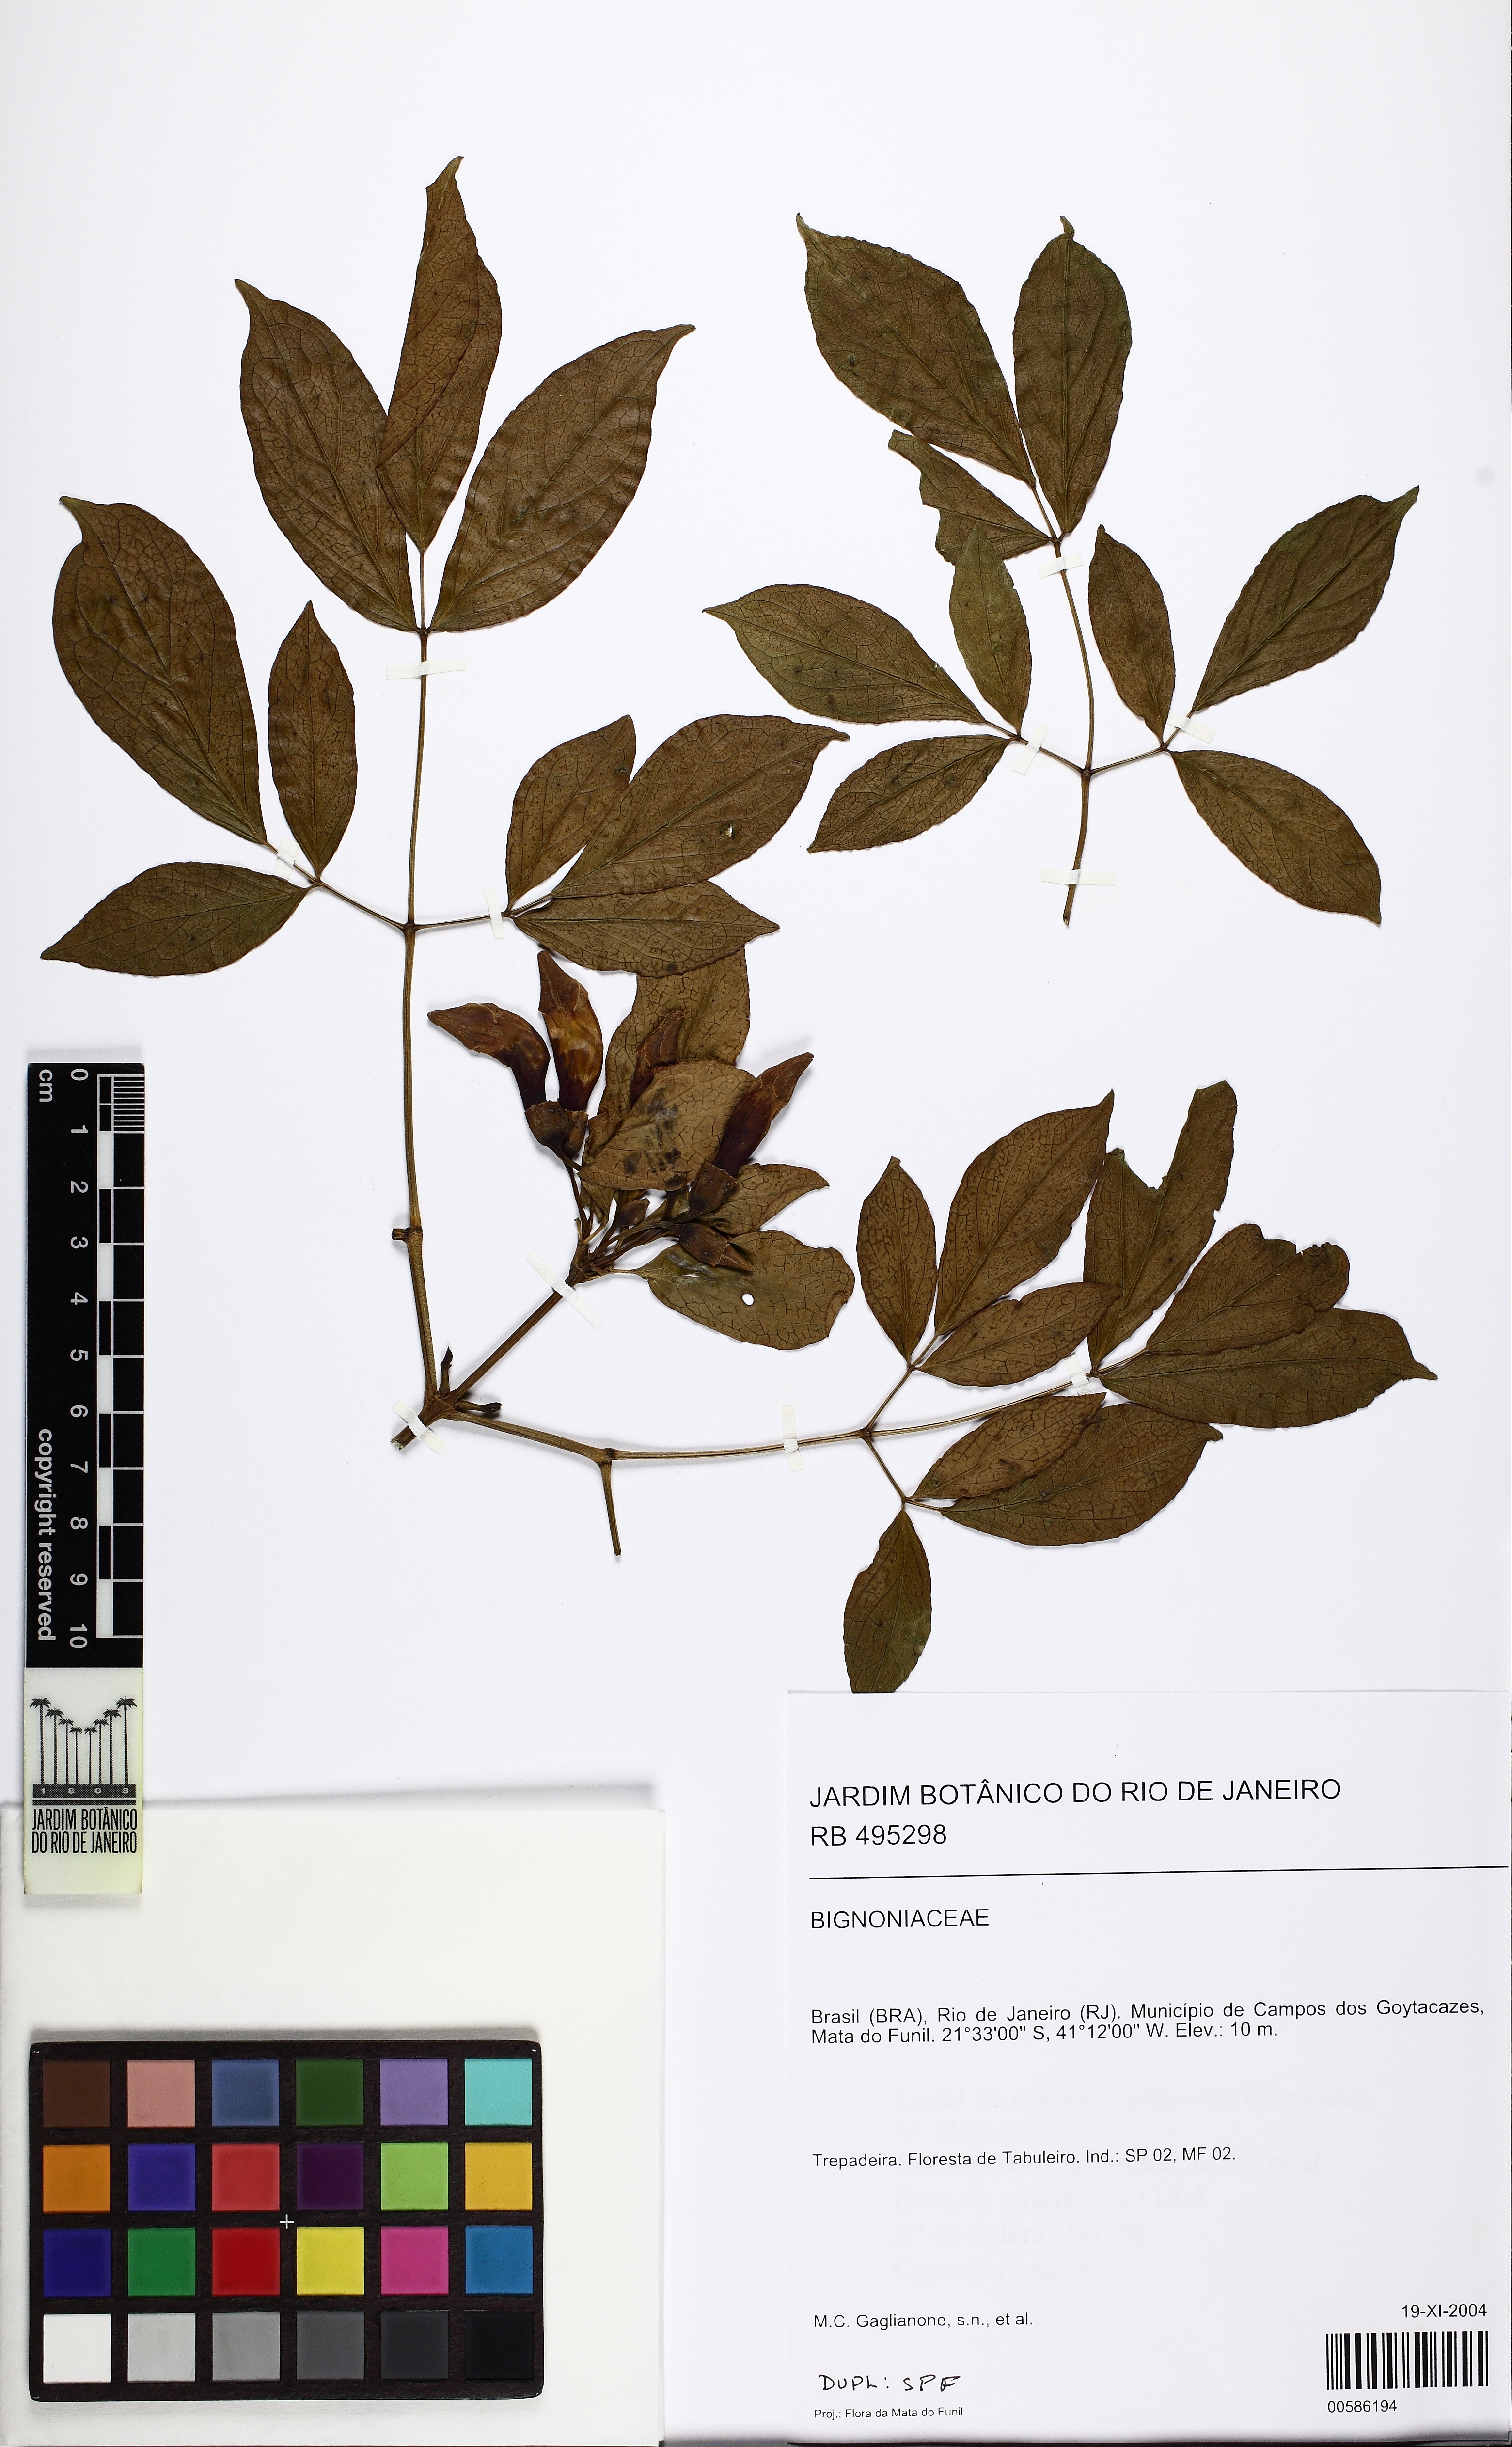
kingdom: Plantae
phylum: Tracheophyta
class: Magnoliopsida
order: Lamiales
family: Bignoniaceae
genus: Adenocalymma
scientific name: Adenocalymma
